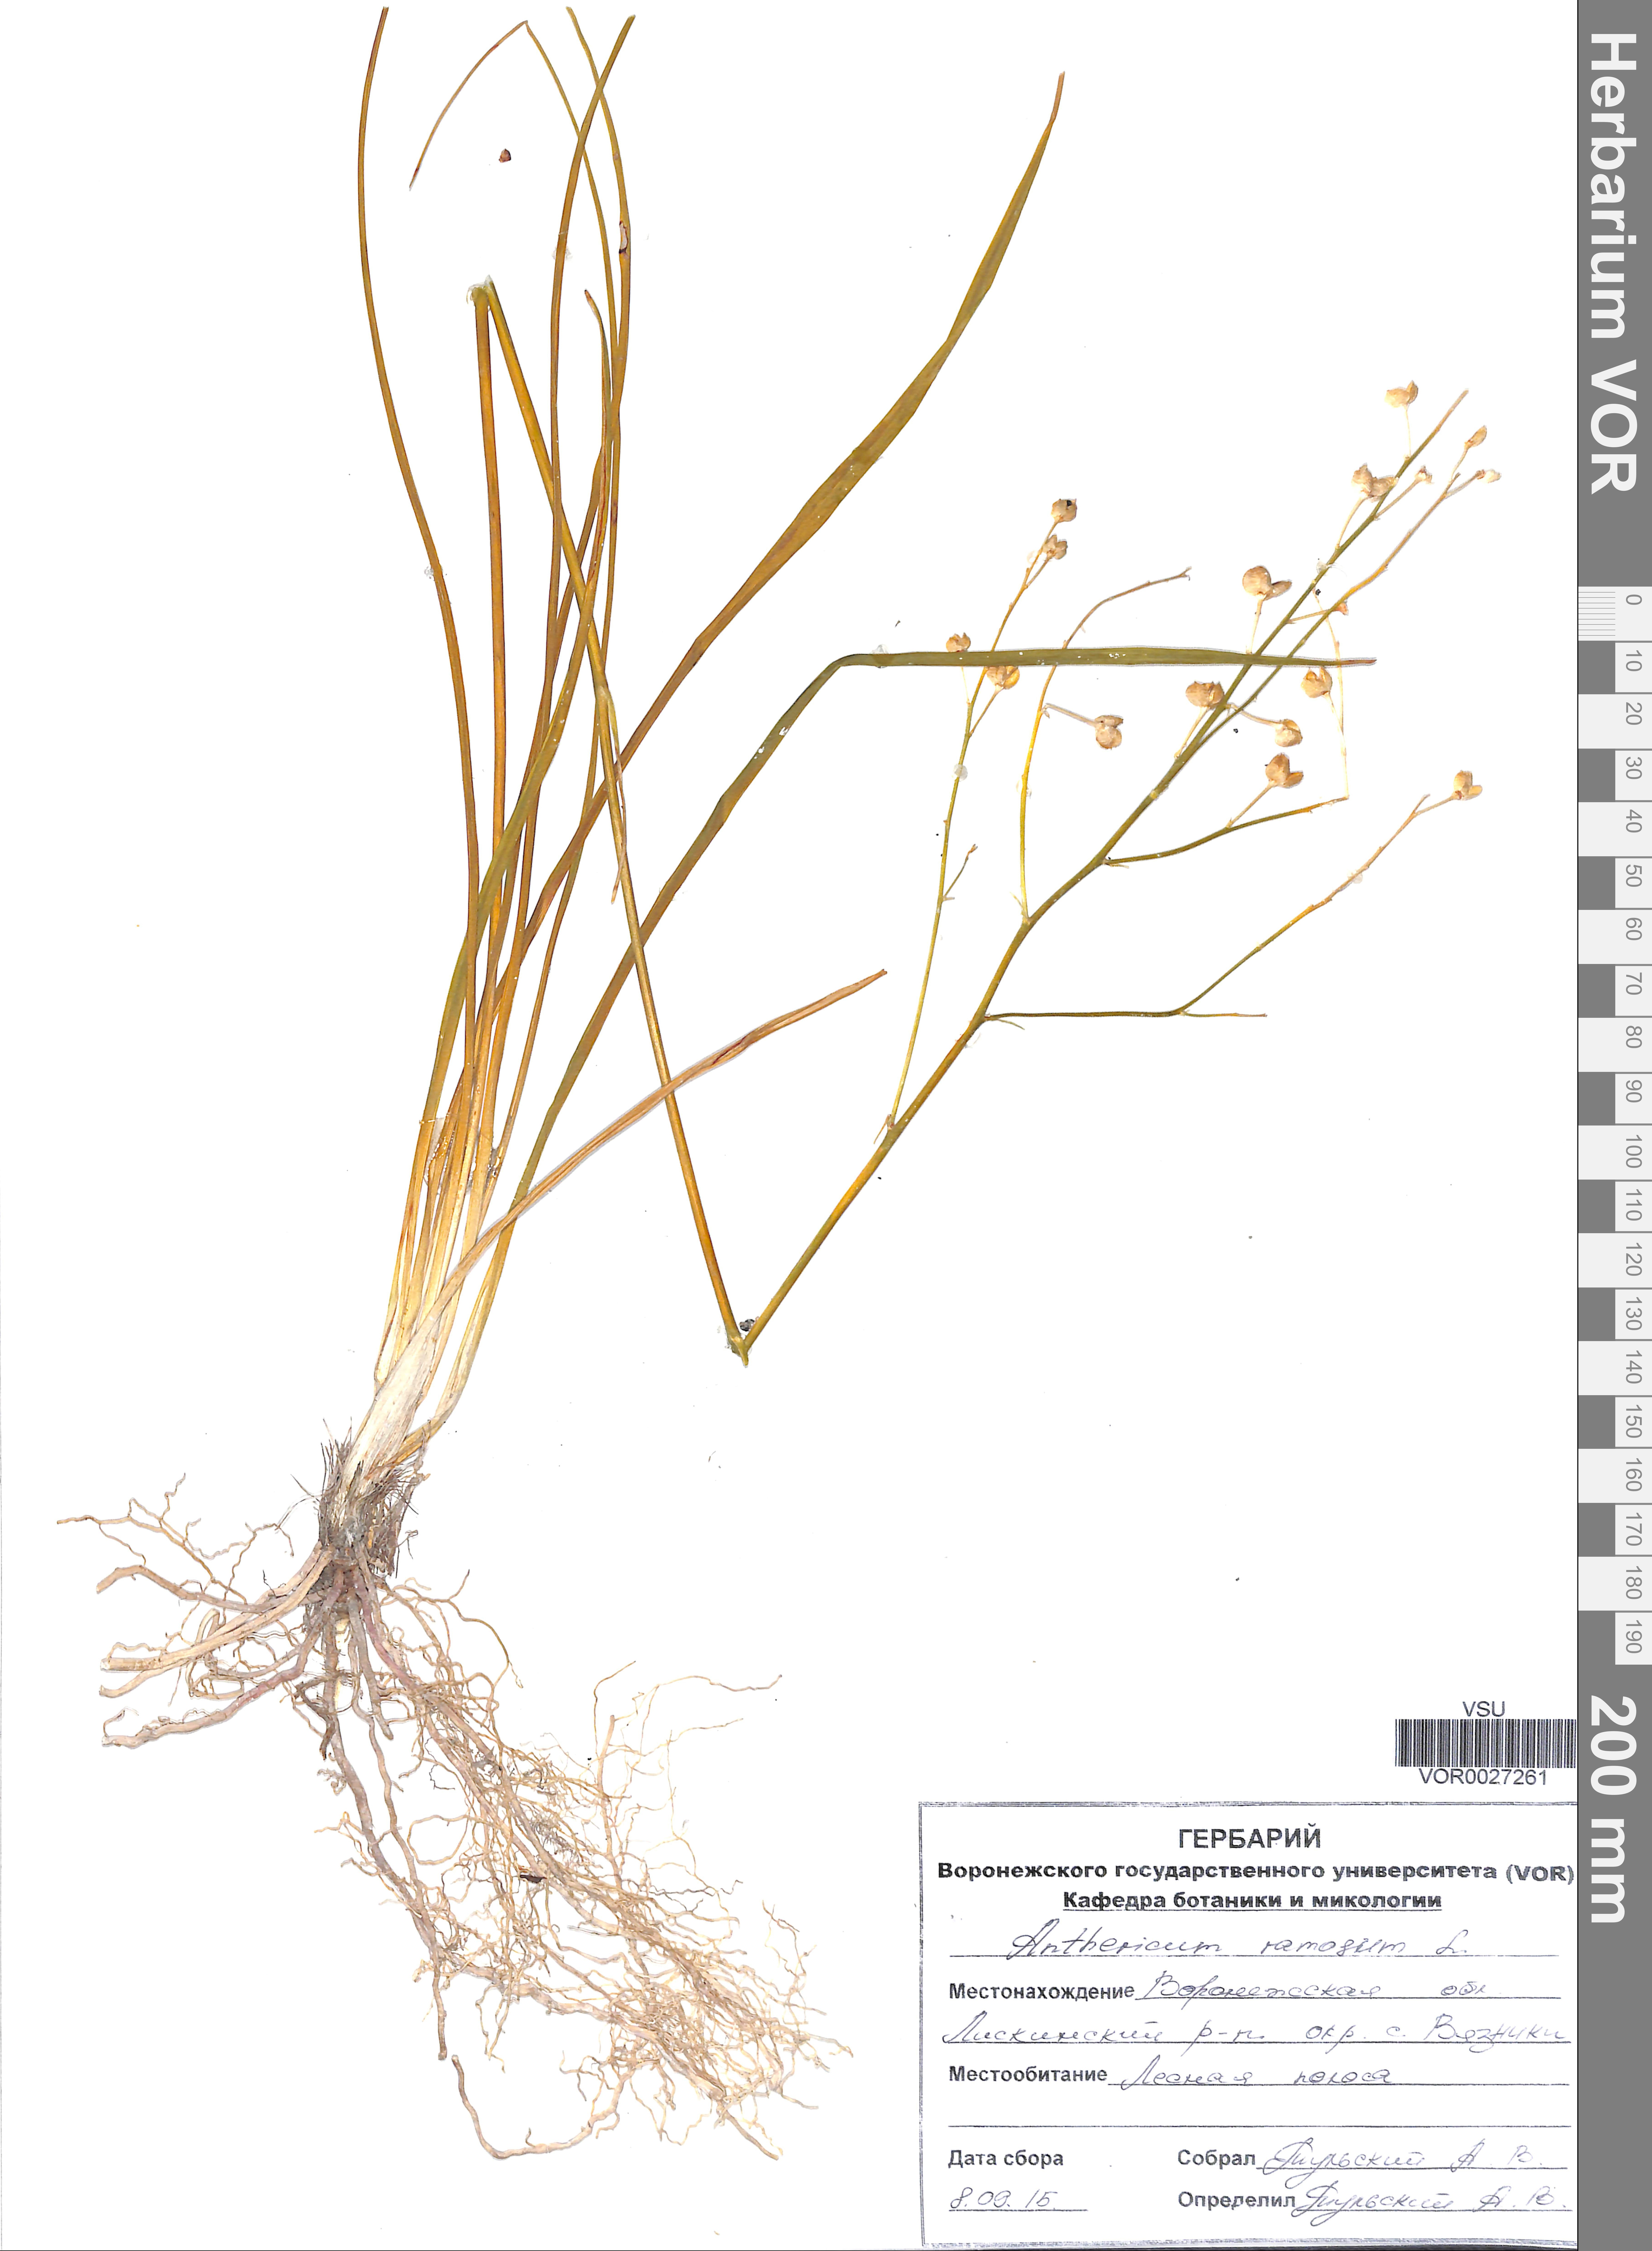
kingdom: Plantae
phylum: Tracheophyta
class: Liliopsida
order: Asparagales
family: Asparagaceae
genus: Anthericum
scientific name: Anthericum ramosum
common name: Branched st. bernard's-lily
